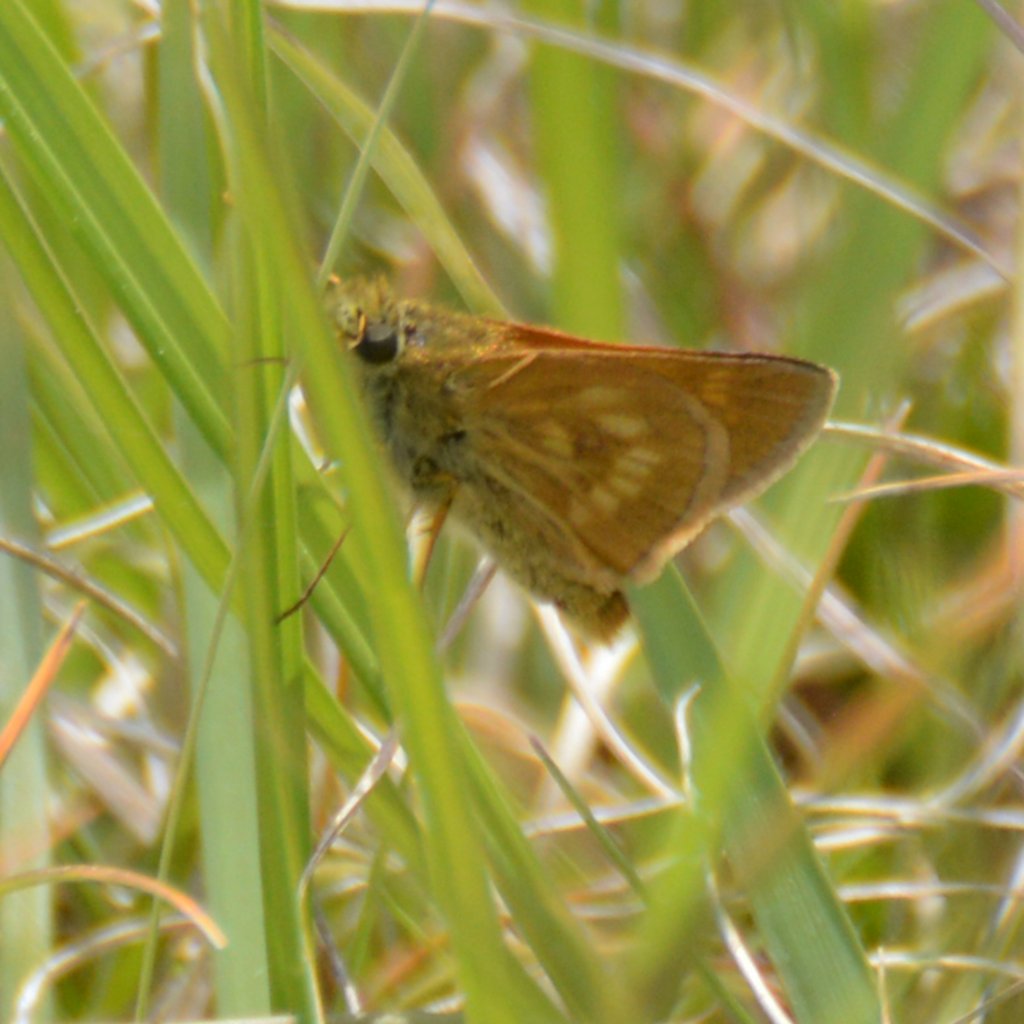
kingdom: Animalia
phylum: Arthropoda
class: Insecta
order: Lepidoptera
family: Hesperiidae
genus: Polites
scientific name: Polites
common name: Long Dash Skipper
